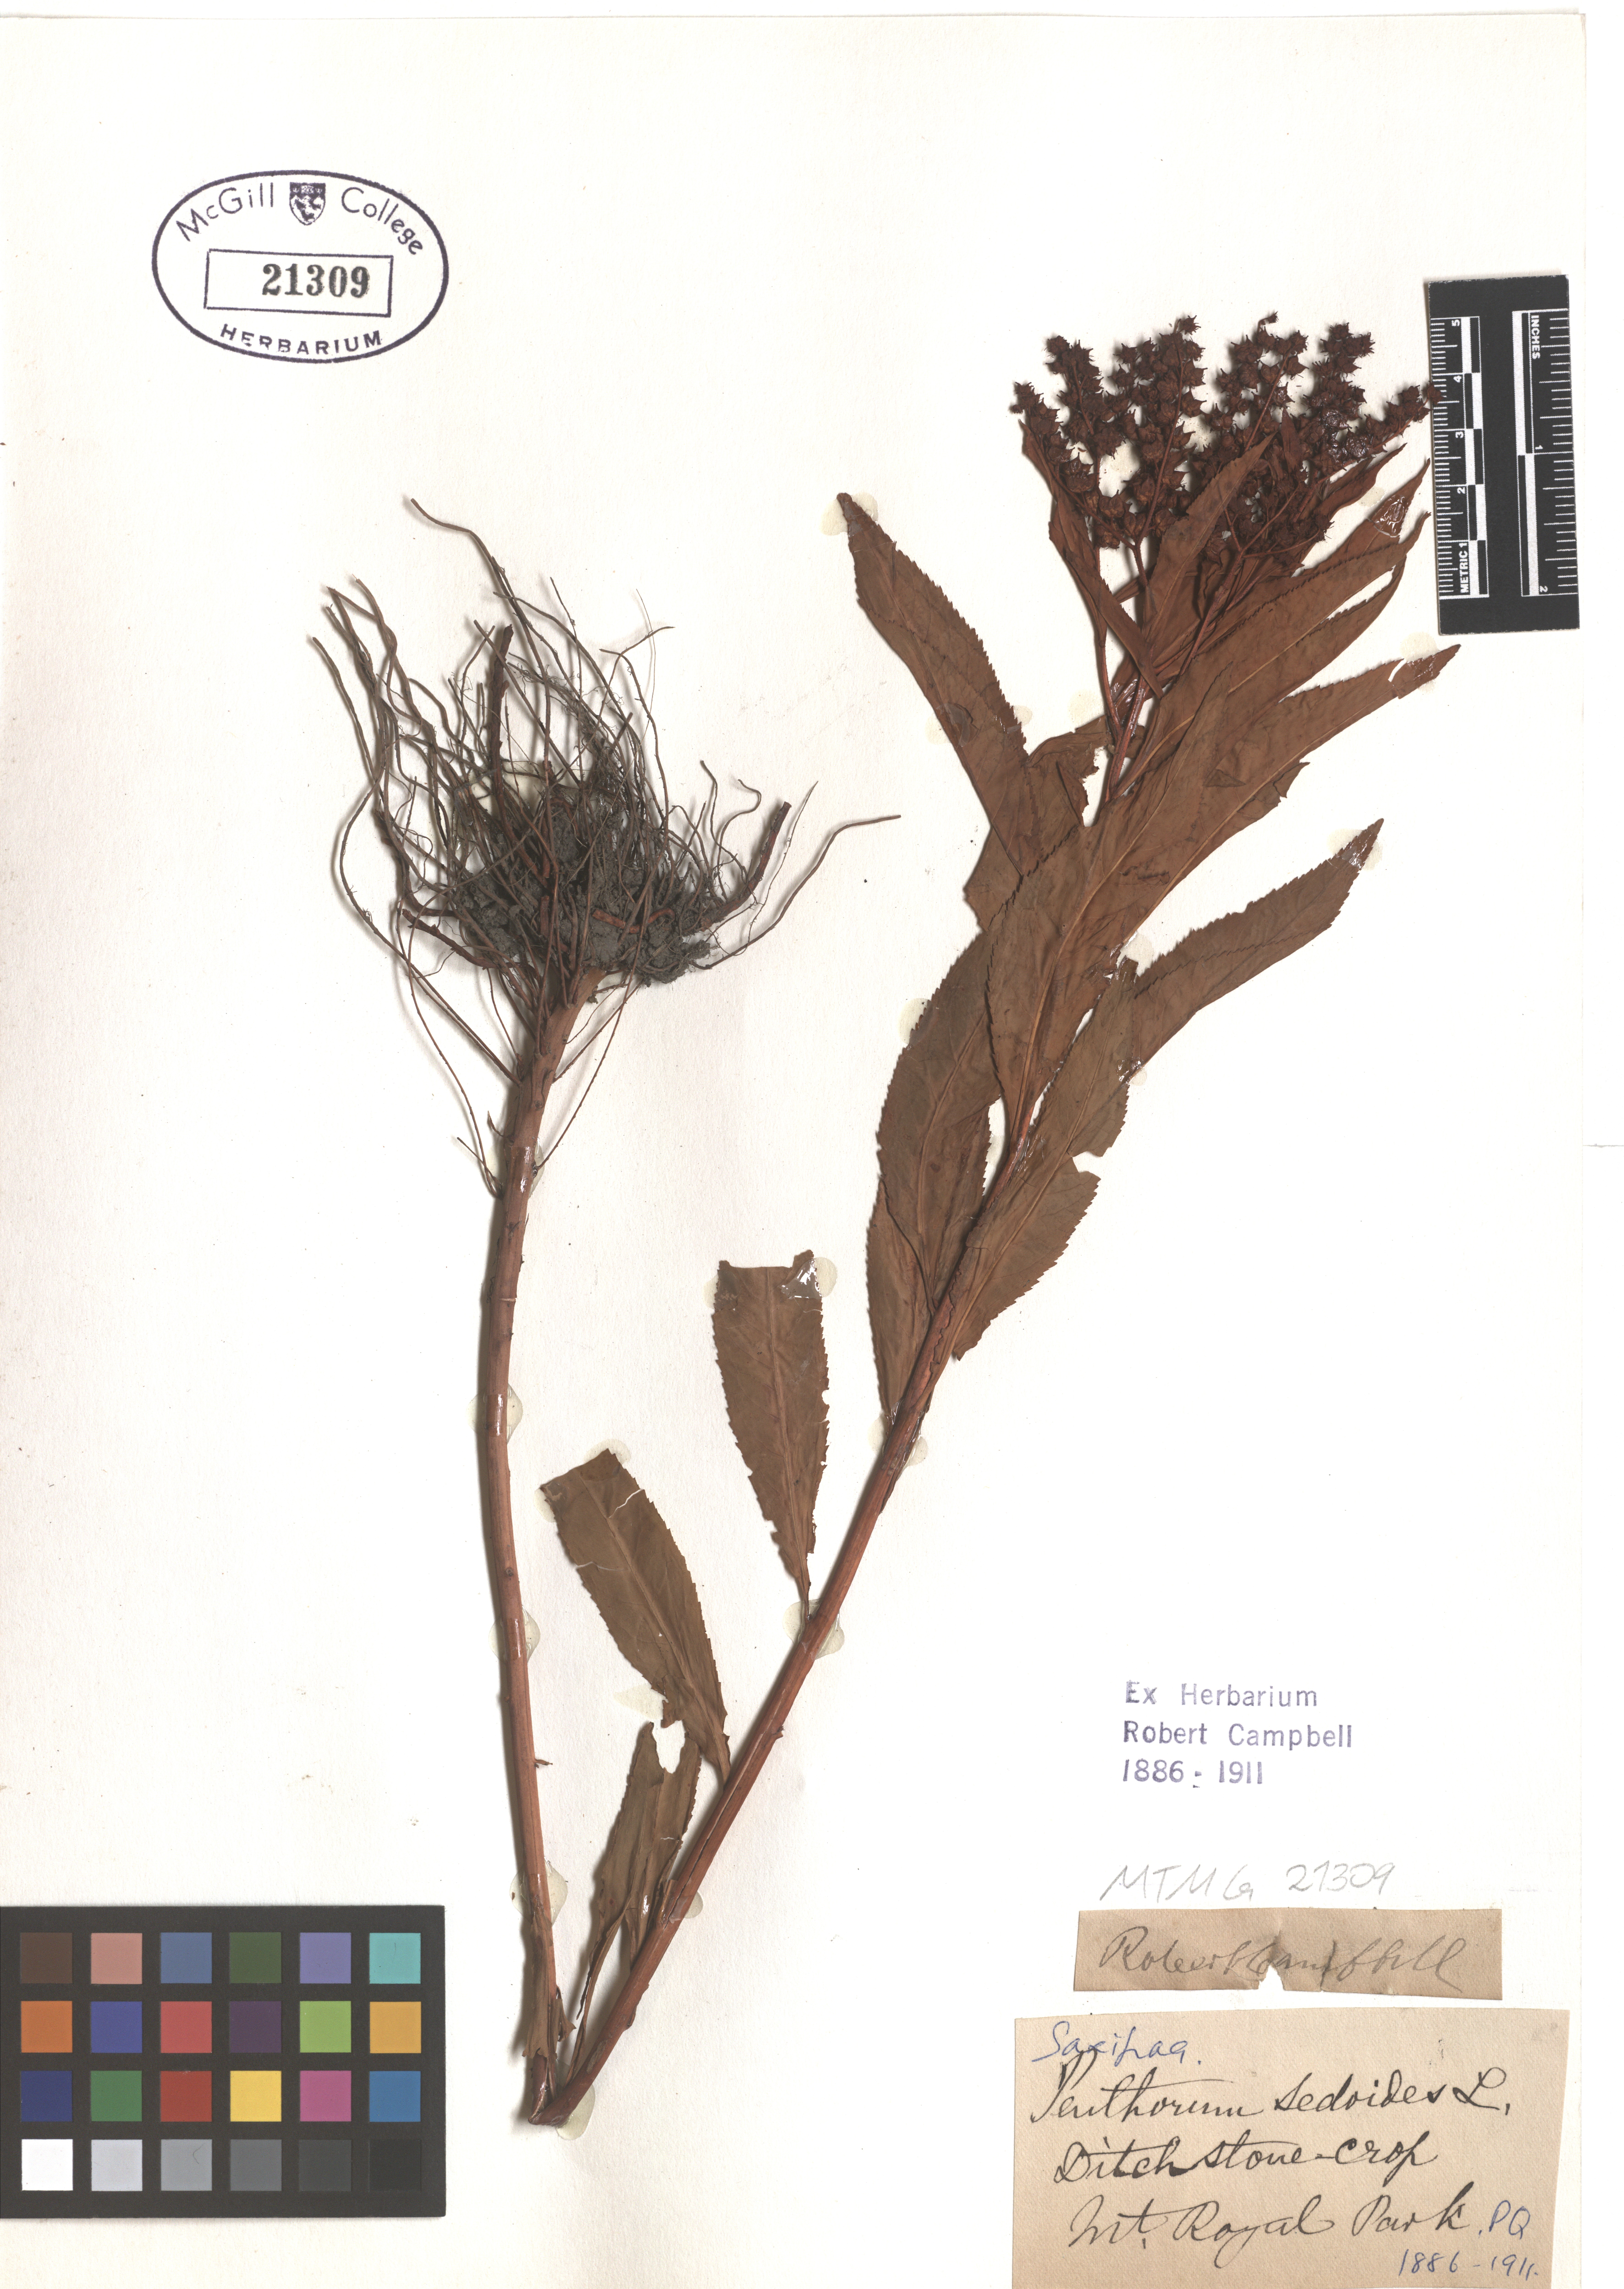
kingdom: Plantae
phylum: Tracheophyta
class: Magnoliopsida
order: Saxifragales
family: Penthoraceae
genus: Penthorum
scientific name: Penthorum sedoides
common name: Ditch stonecrop
